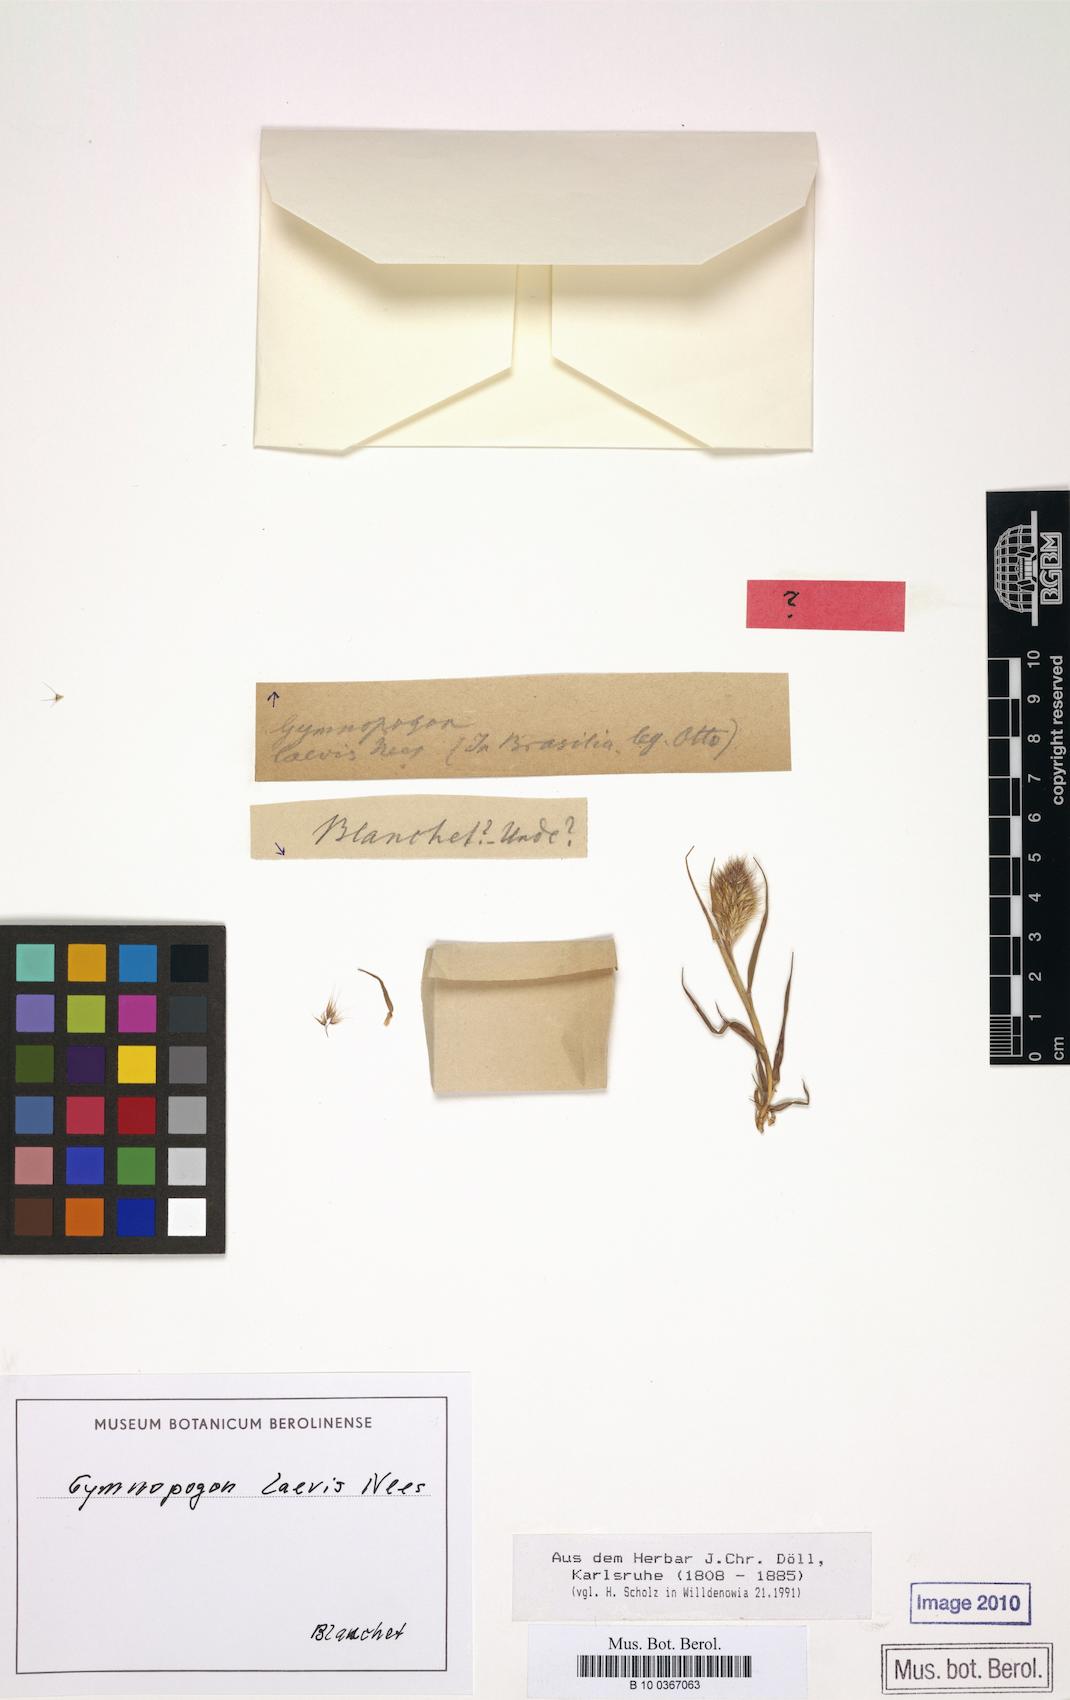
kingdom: Plantae
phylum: Tracheophyta
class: Liliopsida
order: Poales
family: Poaceae
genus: Gymnopogon
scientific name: Gymnopogon spicatus
